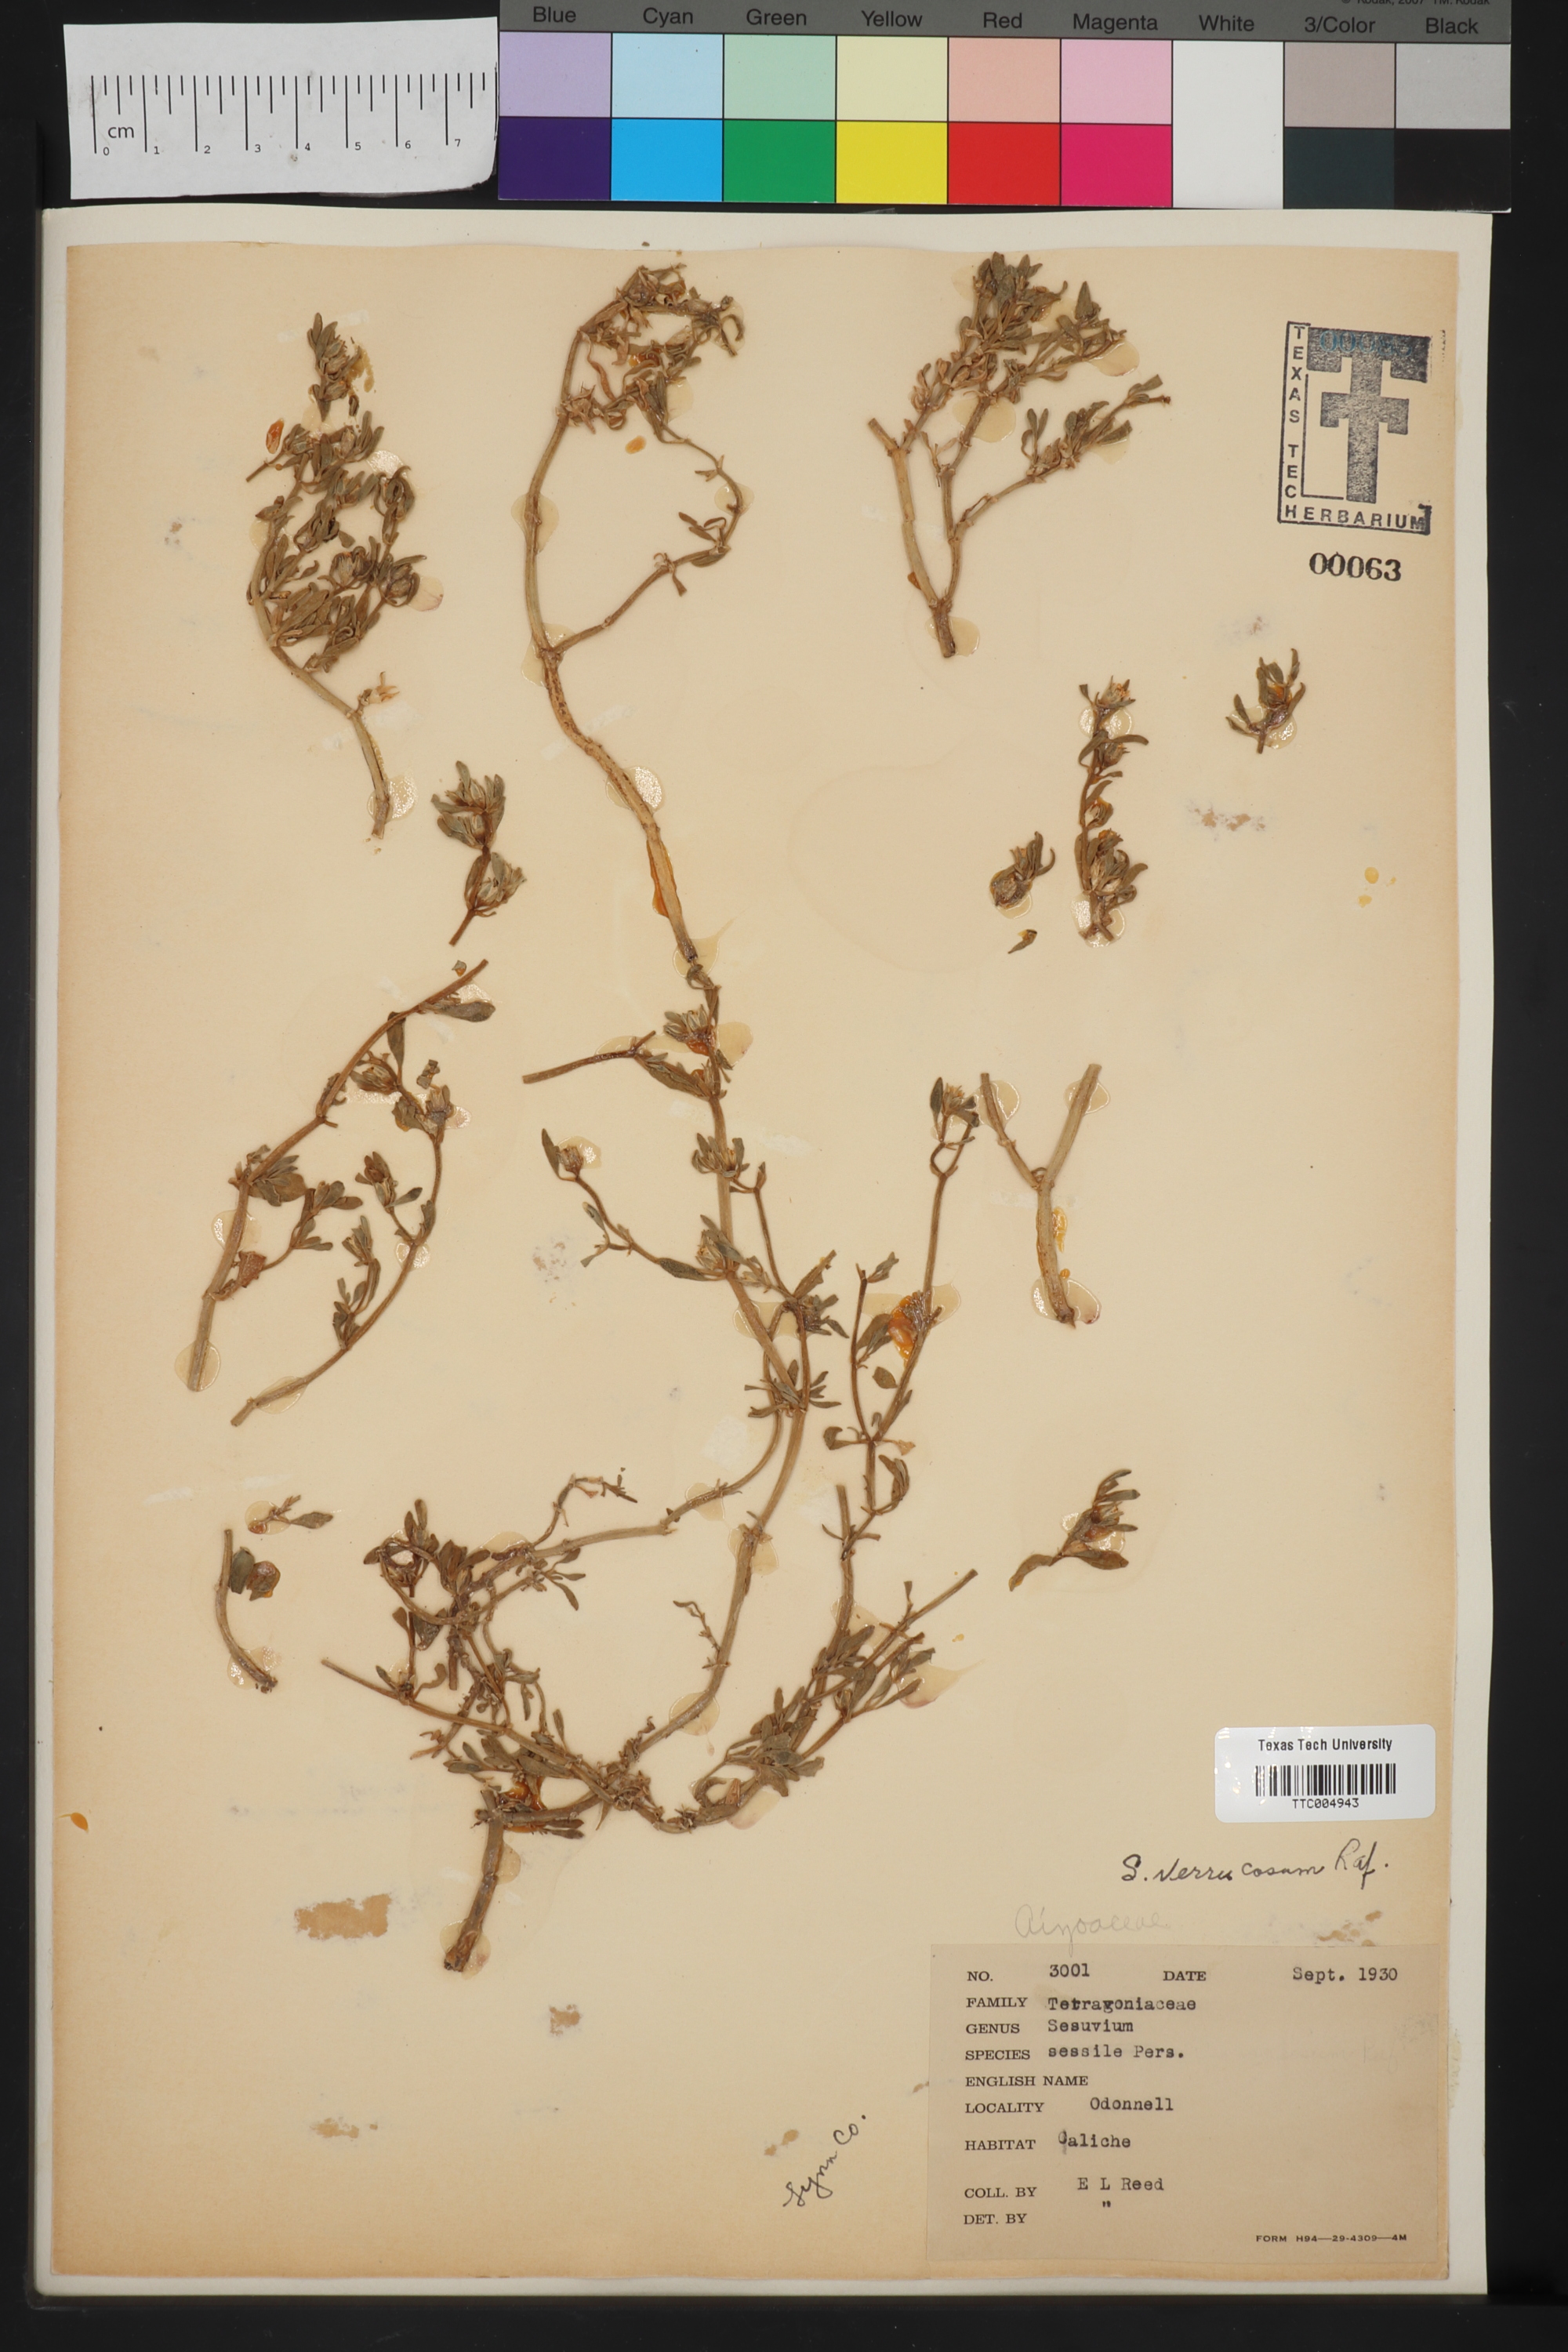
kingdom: Plantae
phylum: Tracheophyta
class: Magnoliopsida
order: Caryophyllales
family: Aizoaceae
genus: Sesuvium
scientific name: Sesuvium revolutifolium
